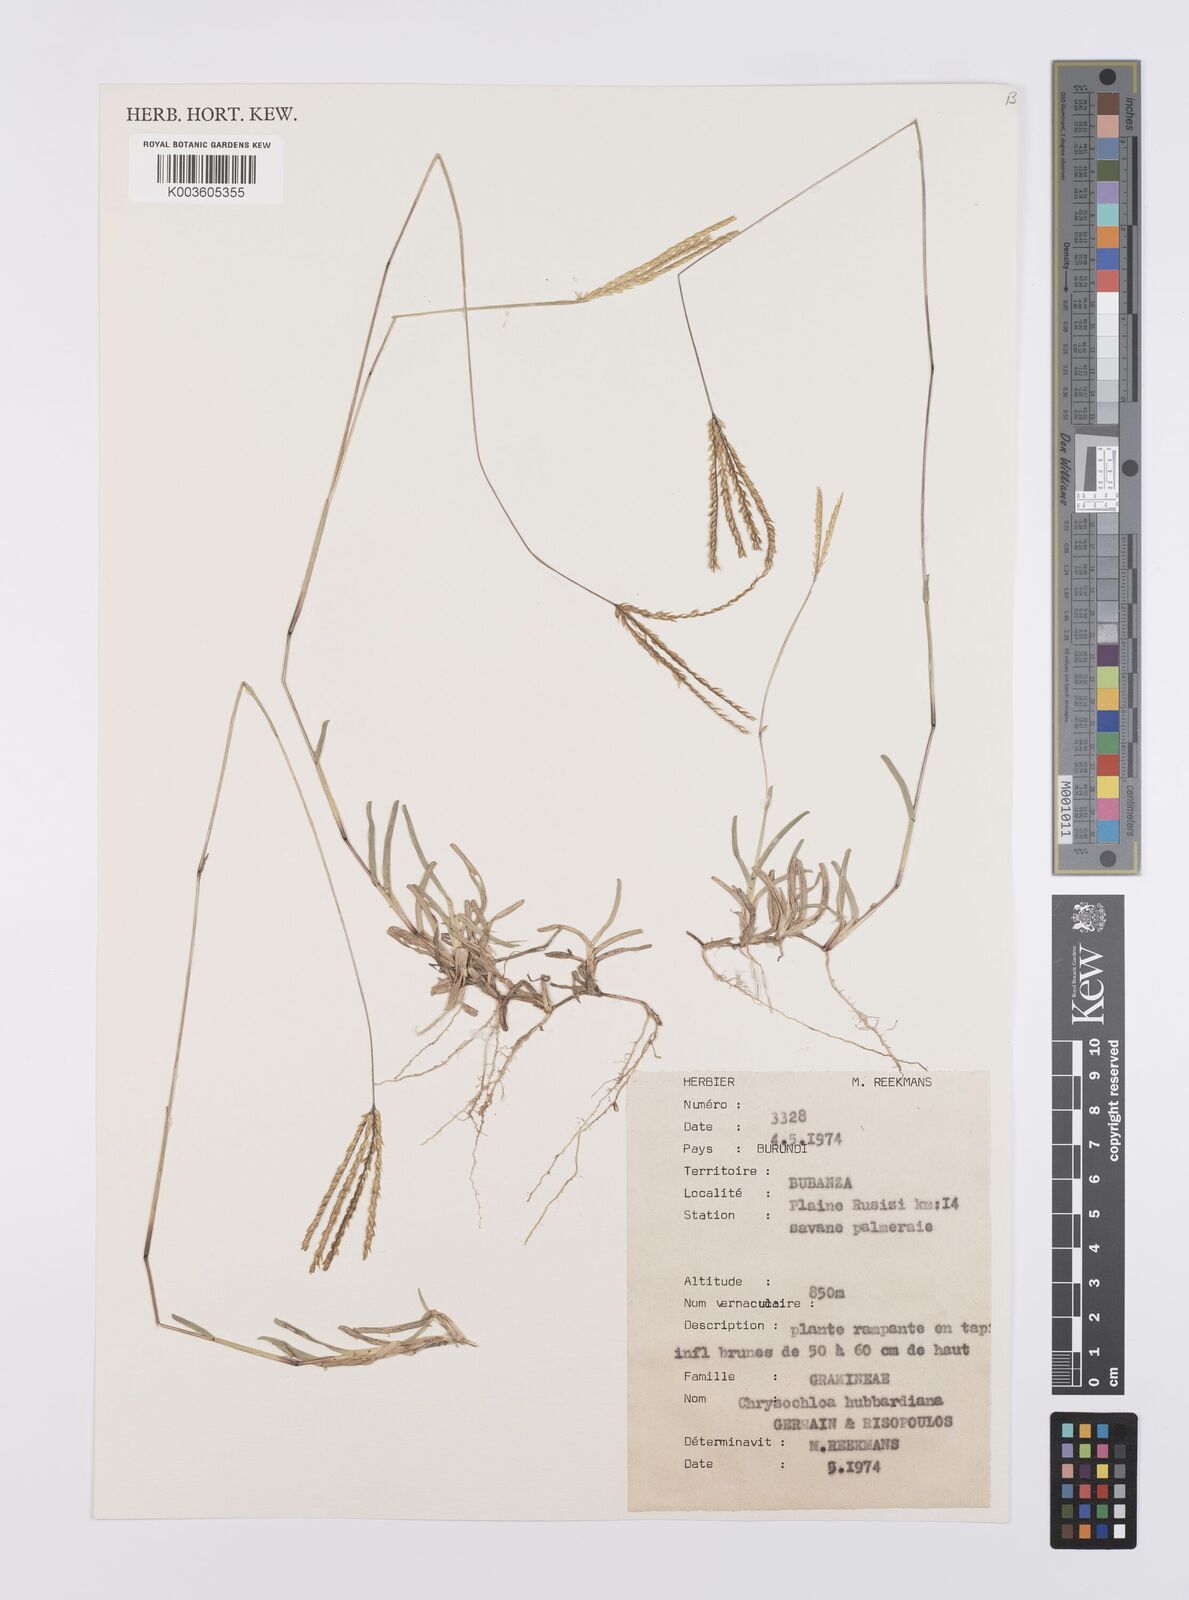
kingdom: Plantae
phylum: Tracheophyta
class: Liliopsida
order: Poales
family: Poaceae
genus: Chrysochloa
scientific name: Chrysochloa hindsii
